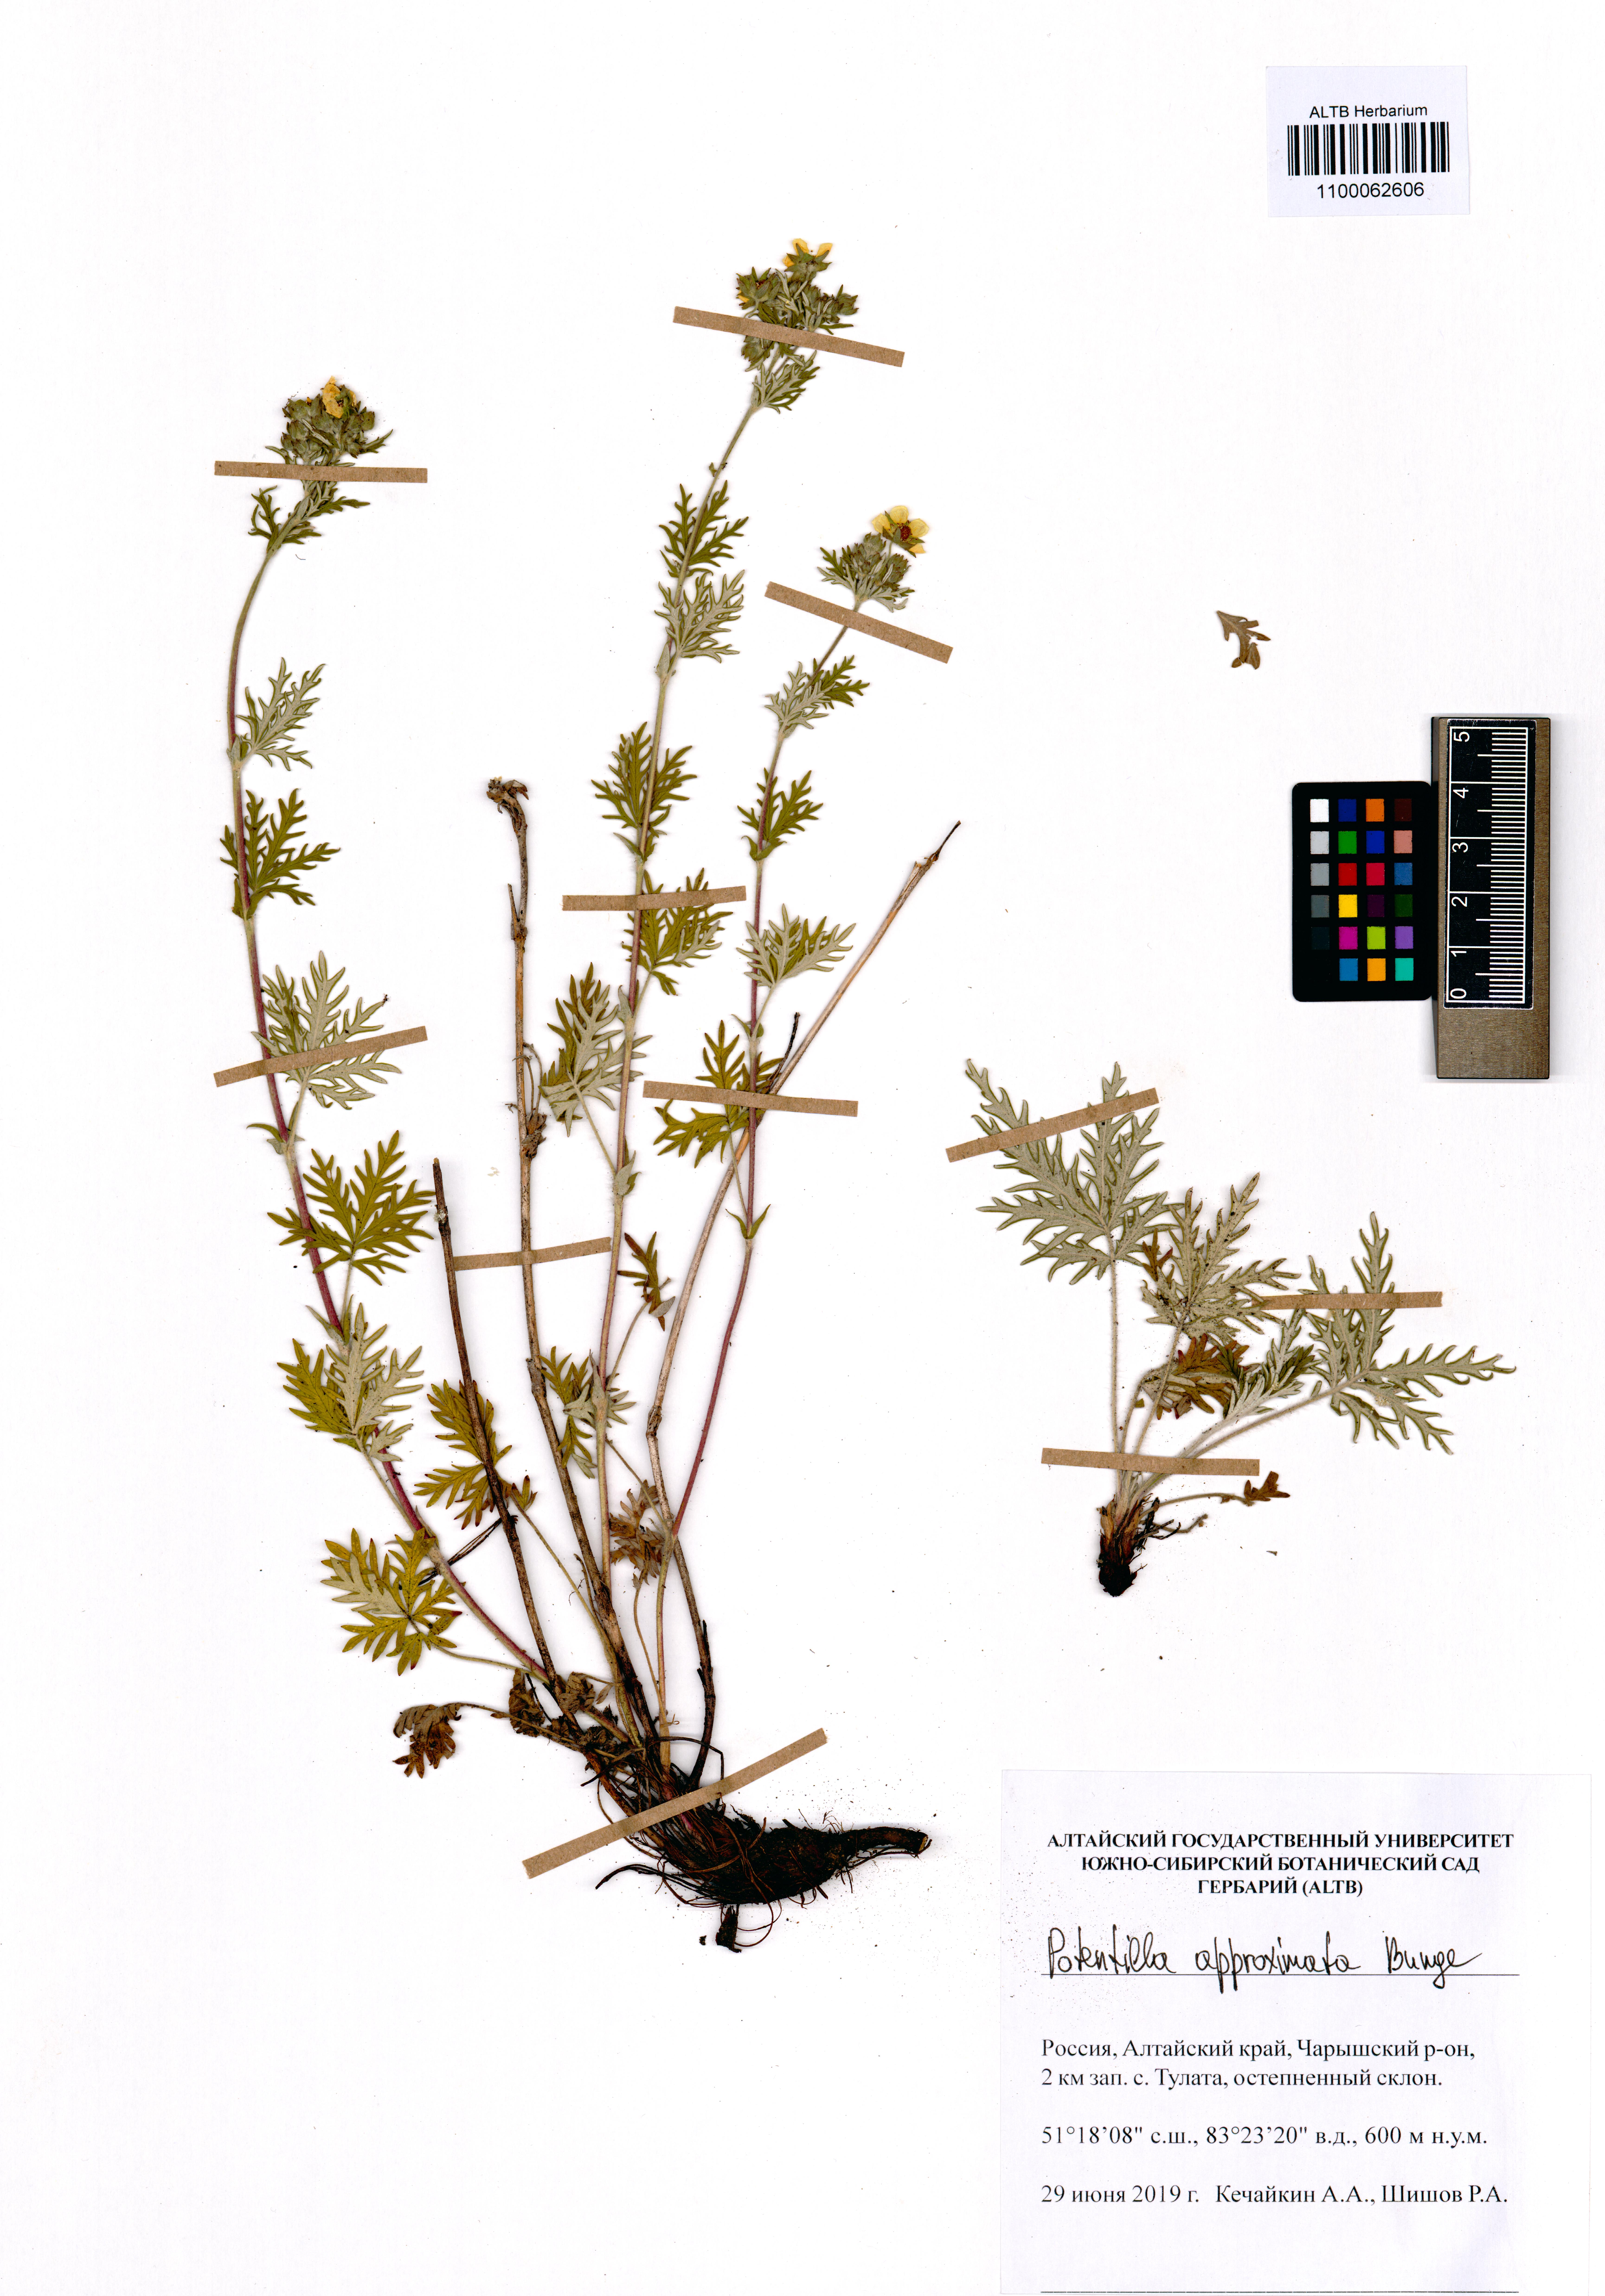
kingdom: Plantae
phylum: Tracheophyta
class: Magnoliopsida
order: Rosales
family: Rosaceae
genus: Potentilla
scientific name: Potentilla conferta
